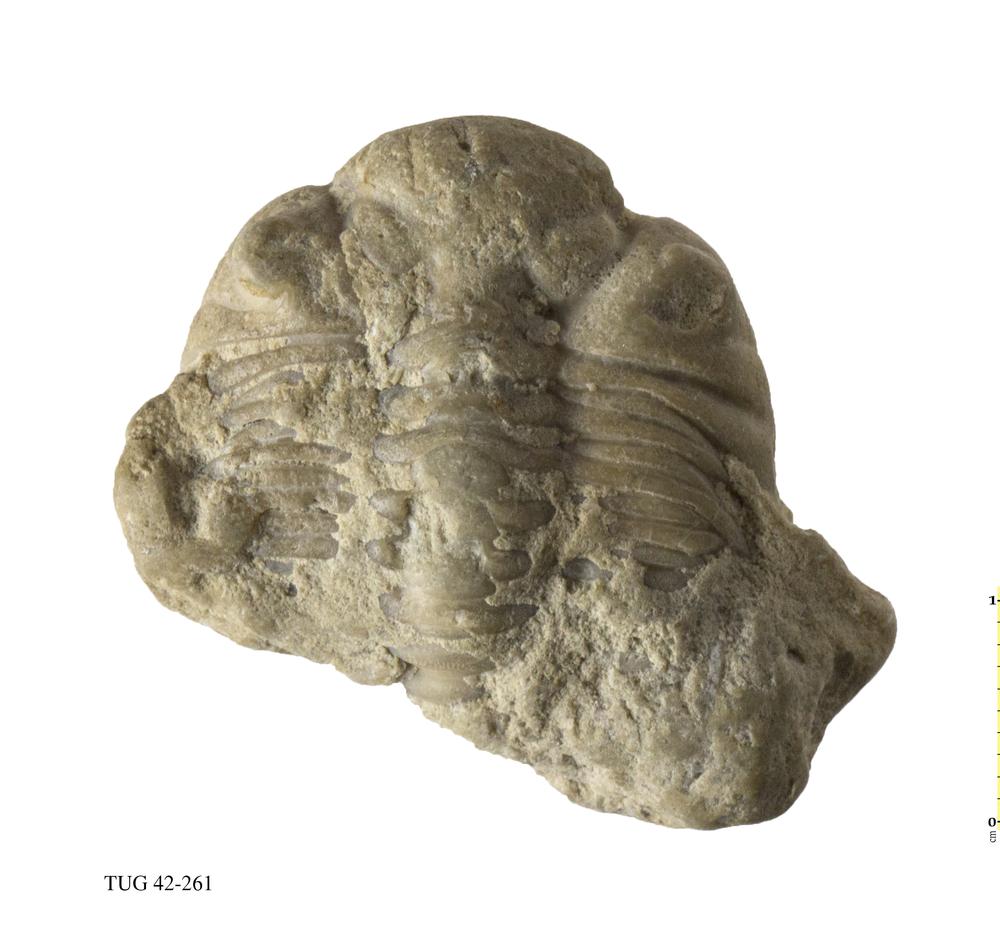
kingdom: Animalia
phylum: Arthropoda
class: Trilobita
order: Phacopida
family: Phacopidae
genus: Phacops
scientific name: Phacops
